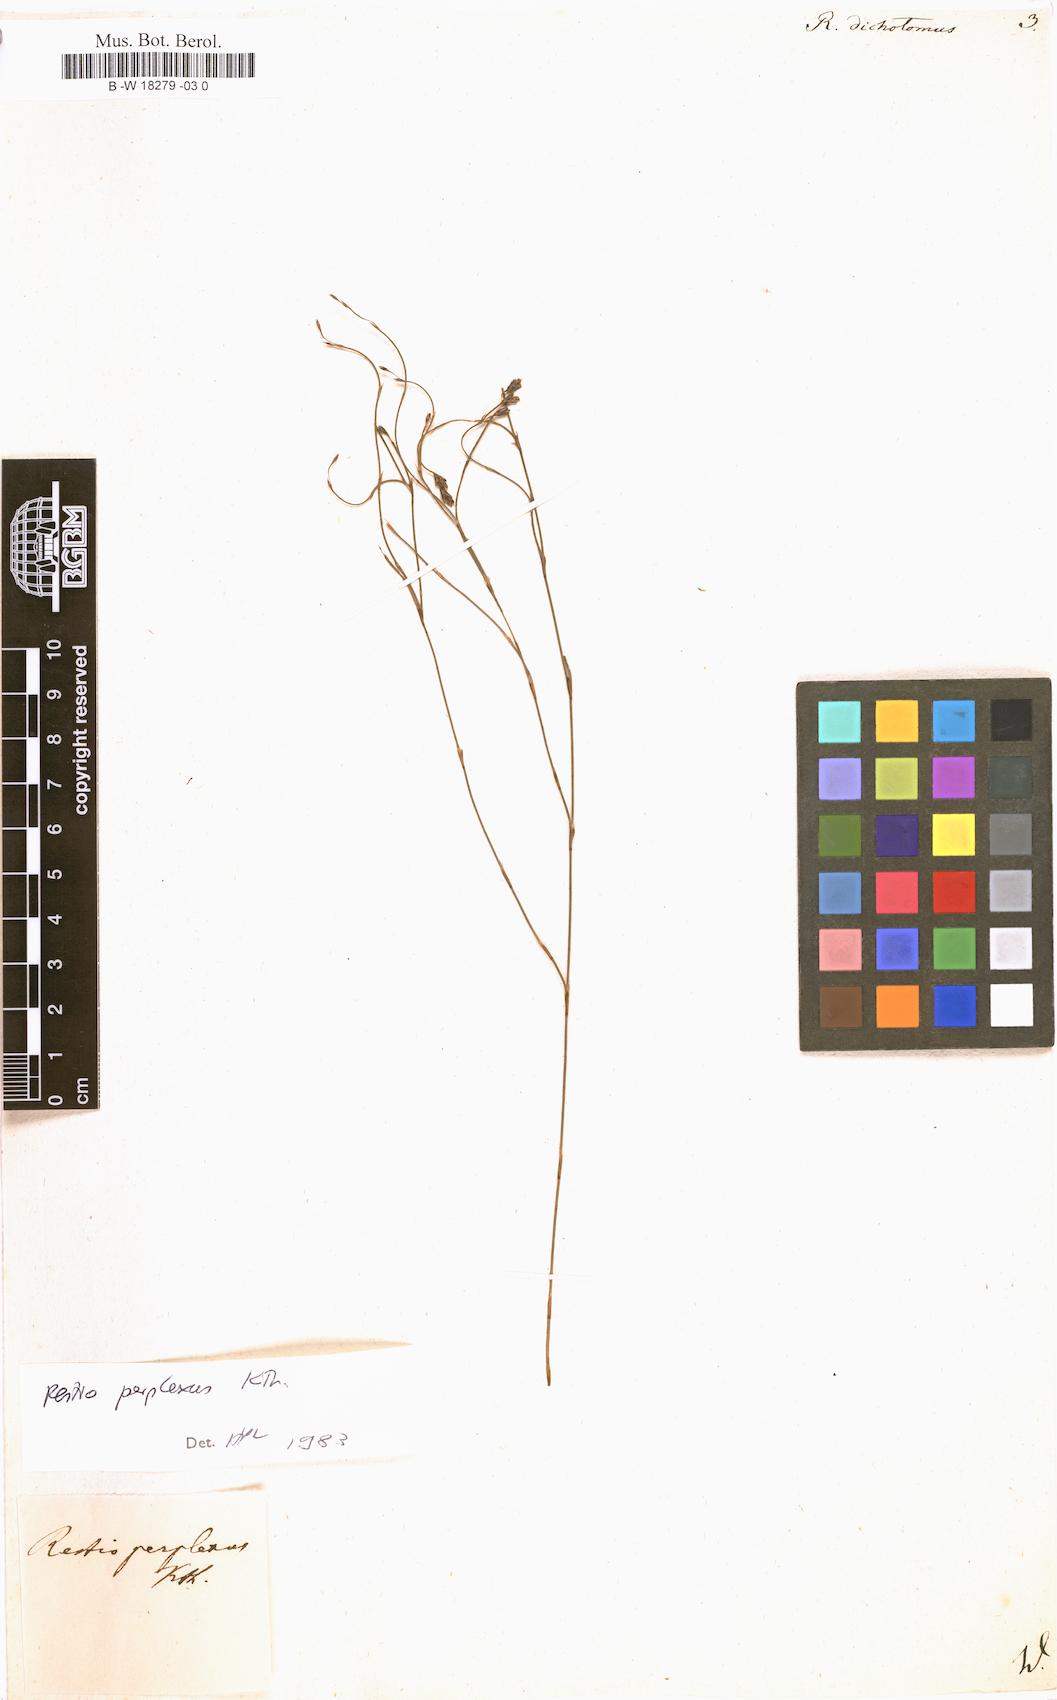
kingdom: Plantae
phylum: Tracheophyta
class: Liliopsida
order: Poales
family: Restionaceae
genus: Restio
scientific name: Restio triflorus
